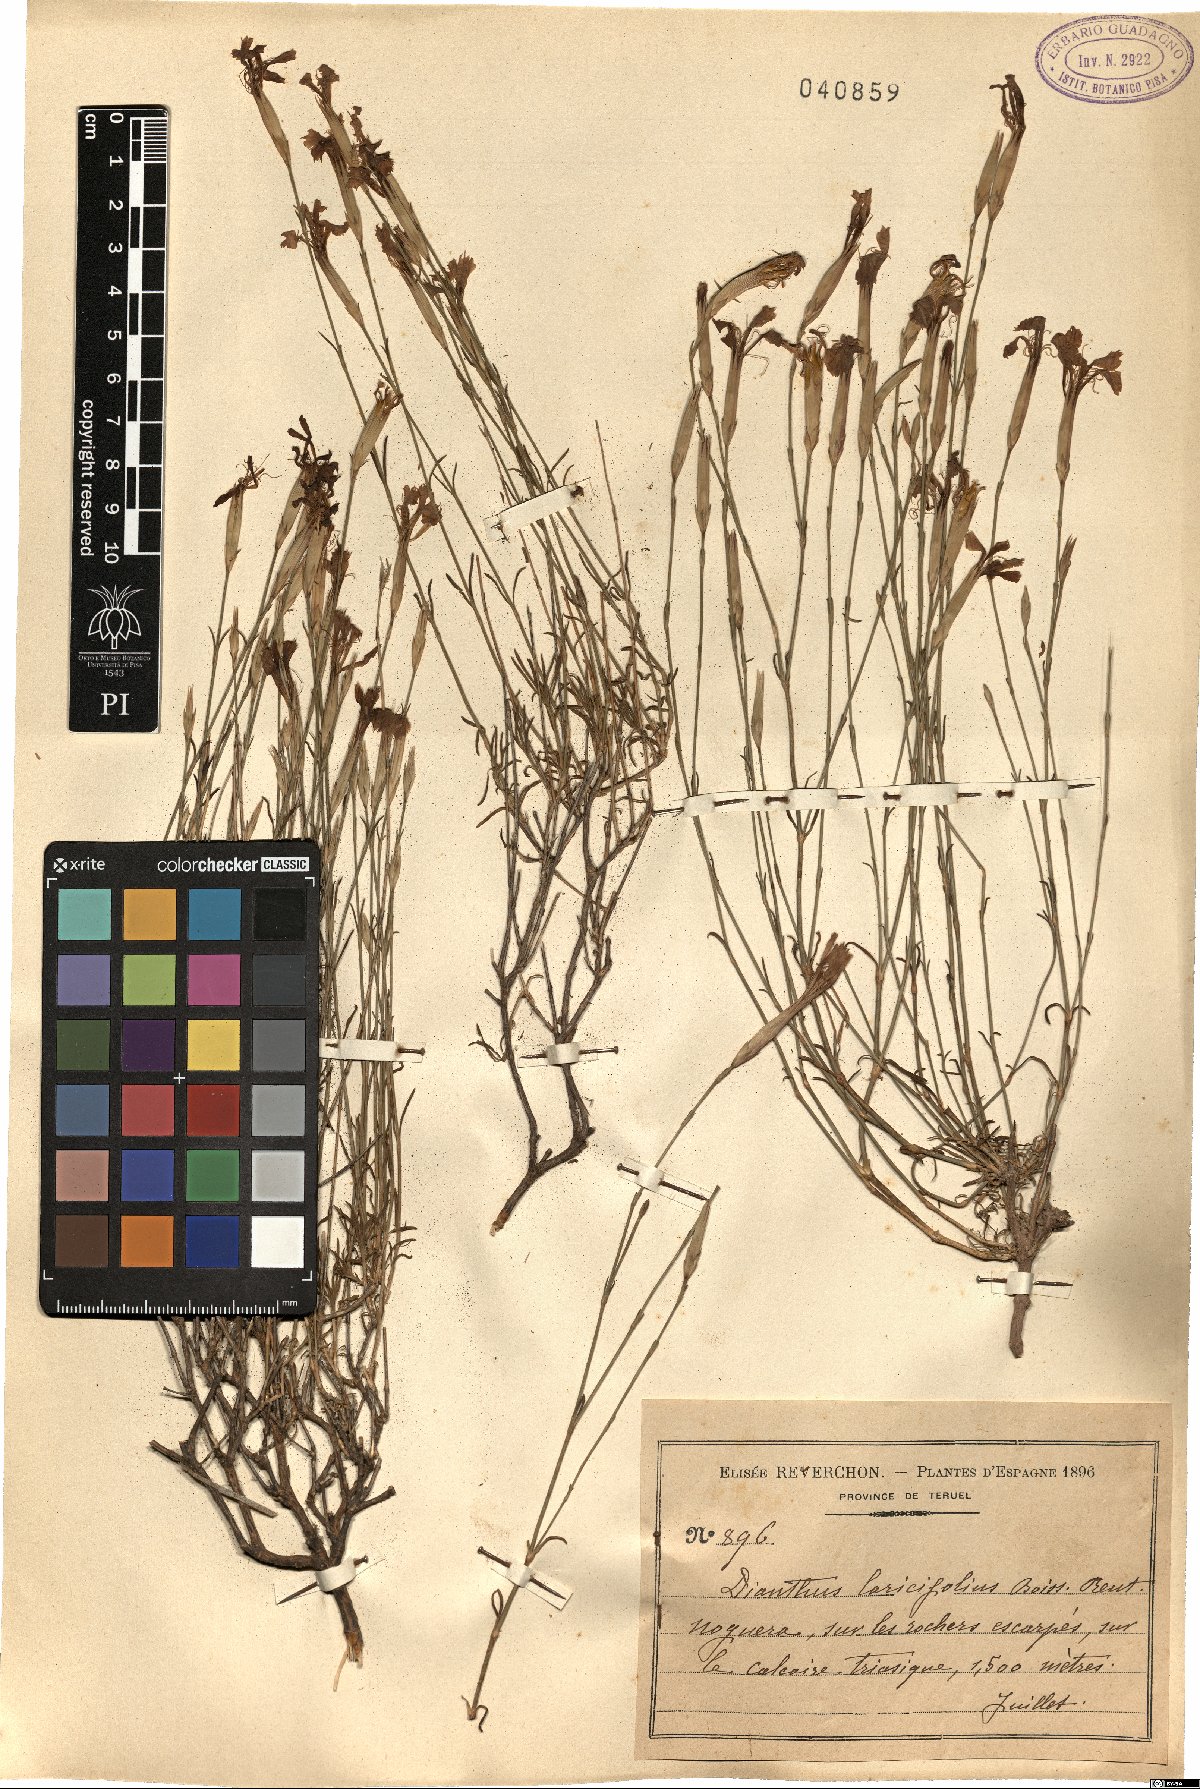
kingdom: Plantae
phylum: Tracheophyta
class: Magnoliopsida
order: Caryophyllales
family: Caryophyllaceae
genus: Dianthus
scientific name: Dianthus laricifolius
